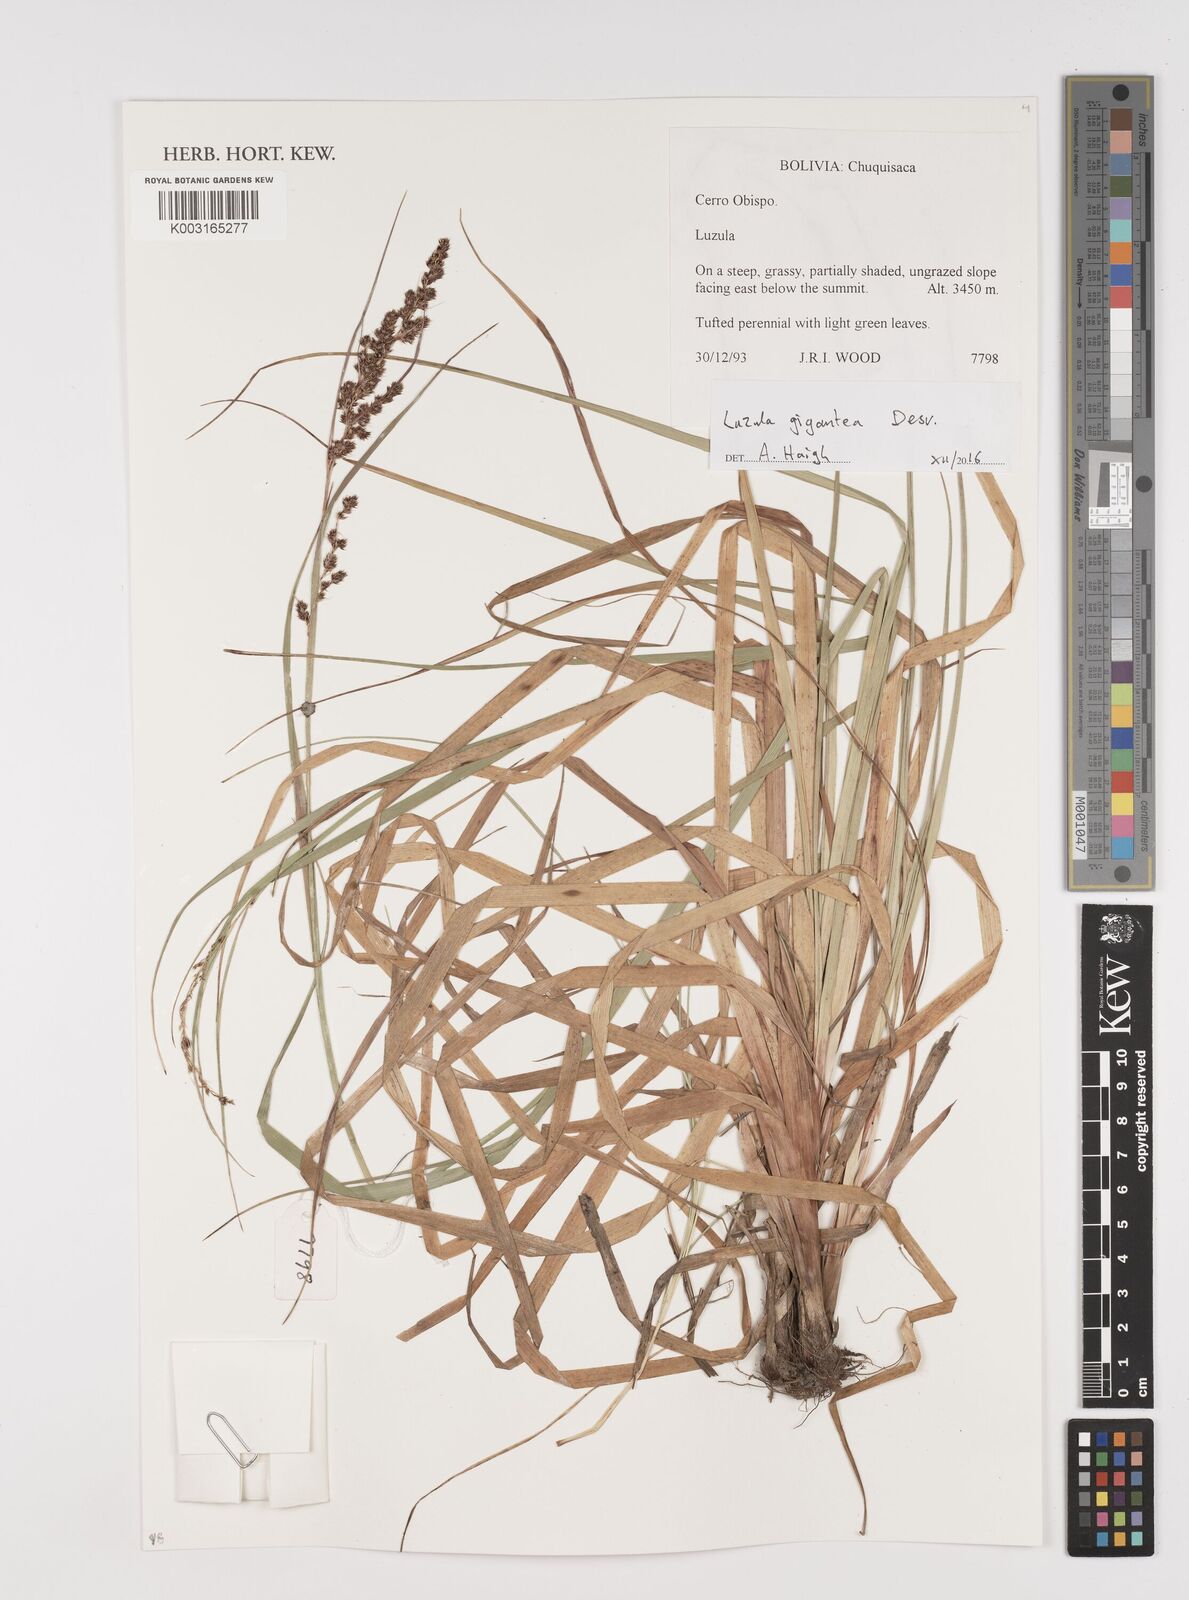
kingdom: Plantae
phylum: Tracheophyta
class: Liliopsida
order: Poales
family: Juncaceae
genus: Luzula
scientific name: Luzula gigantea
